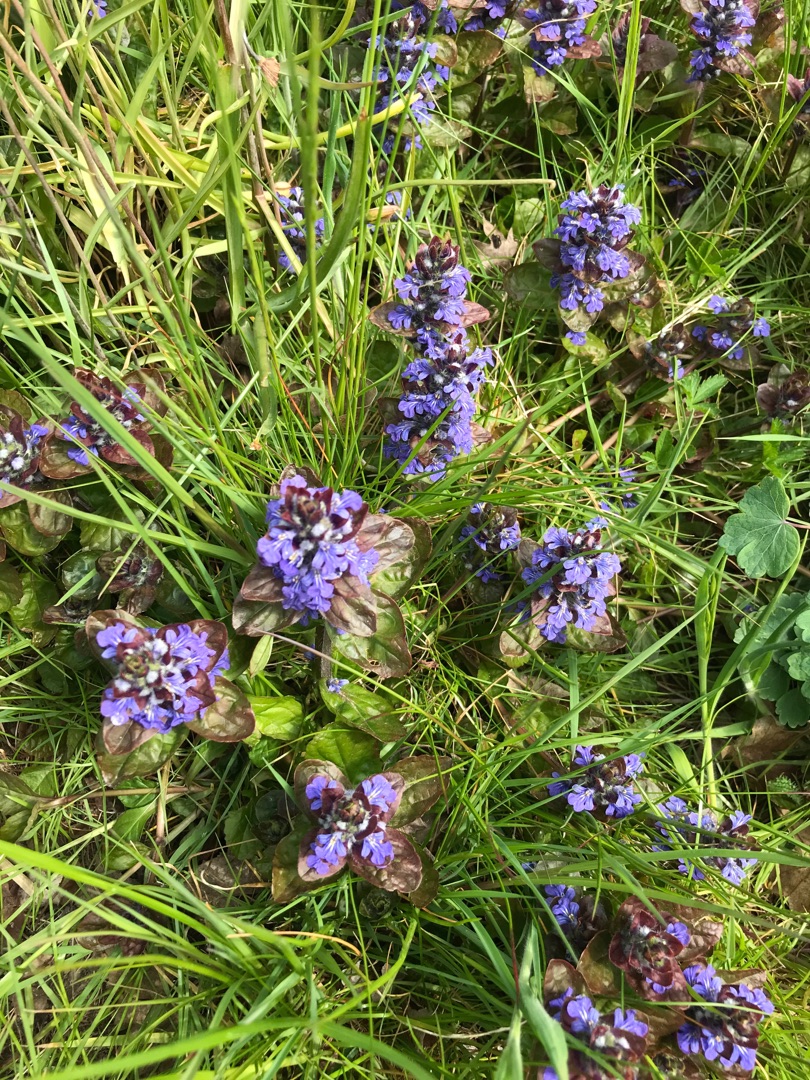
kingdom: Plantae
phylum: Tracheophyta
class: Magnoliopsida
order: Lamiales
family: Lamiaceae
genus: Ajuga
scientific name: Ajuga reptans
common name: Krybende læbeløs
